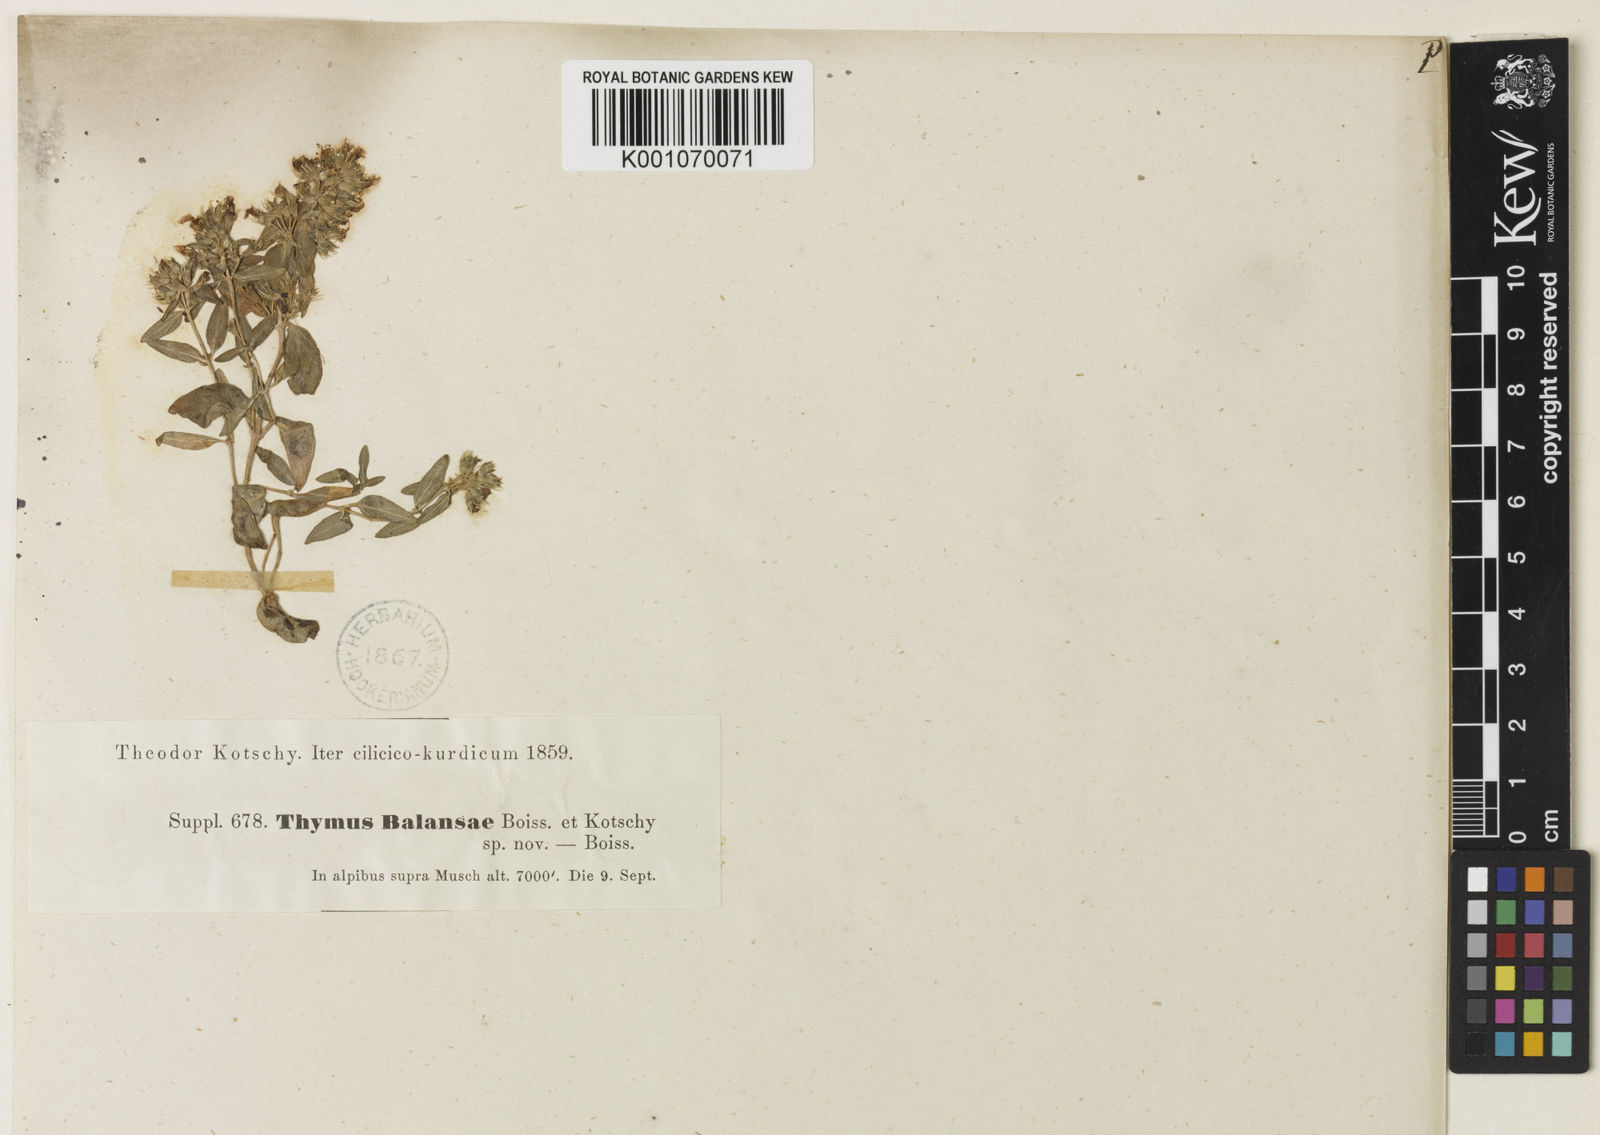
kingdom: Plantae
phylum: Tracheophyta
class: Magnoliopsida
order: Lamiales
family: Lamiaceae
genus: Thymus
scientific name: Thymus fallax
